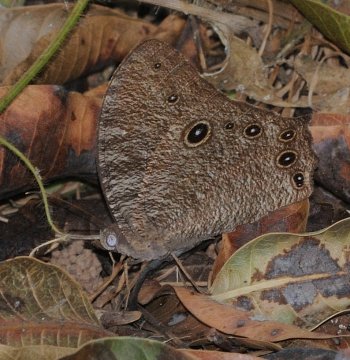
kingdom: Animalia
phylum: Arthropoda
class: Insecta
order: Lepidoptera
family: Nymphalidae
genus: Melanitis
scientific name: Melanitis leda
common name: Common Evening Brown
